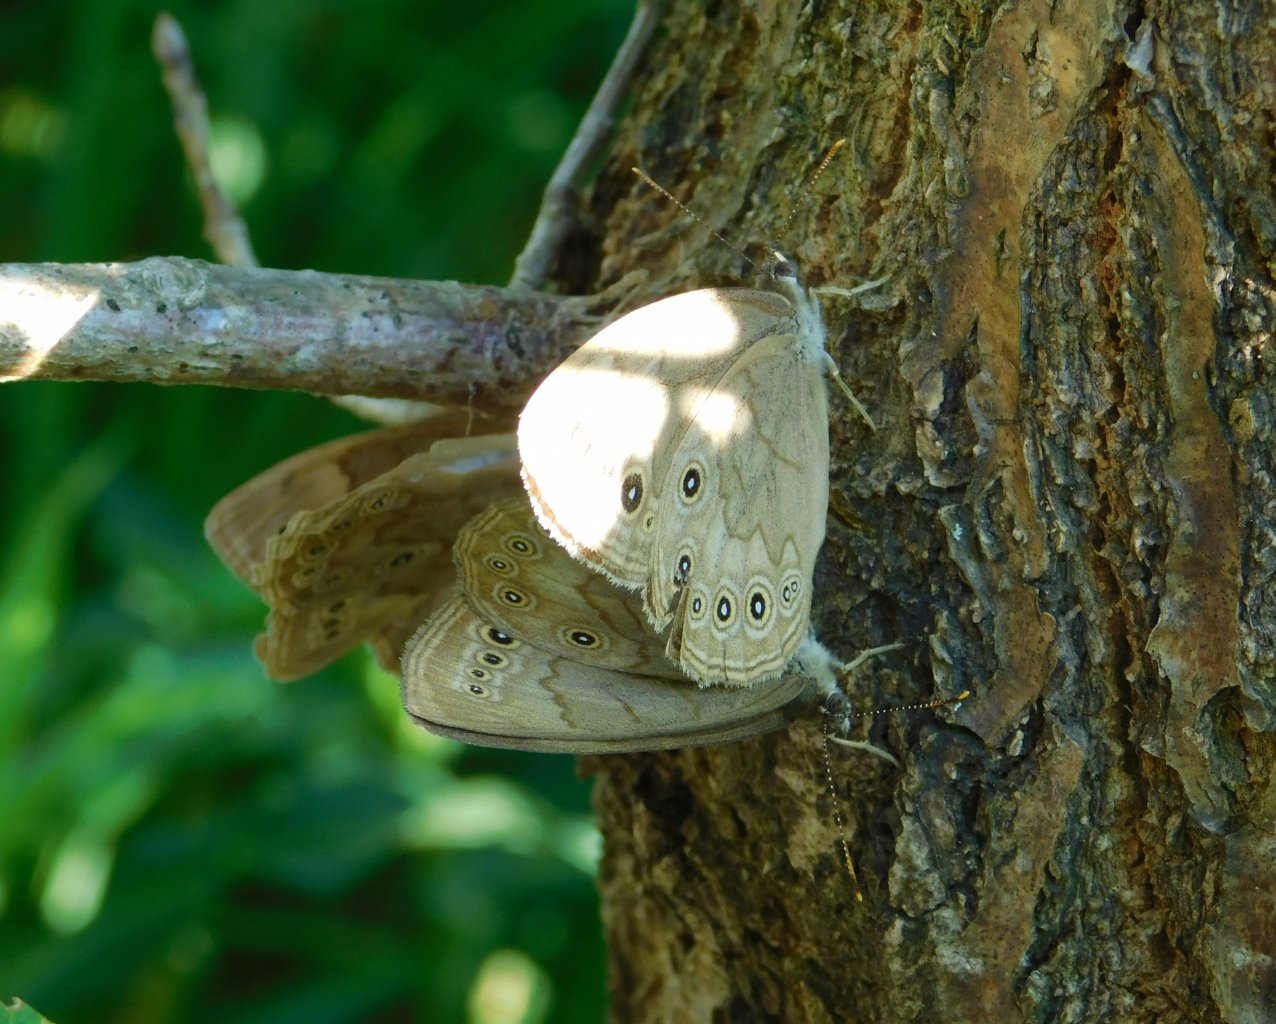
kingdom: Animalia
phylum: Arthropoda
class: Insecta
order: Lepidoptera
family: Nymphalidae
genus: Lethe
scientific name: Lethe eurydice
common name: Eyed Brown
